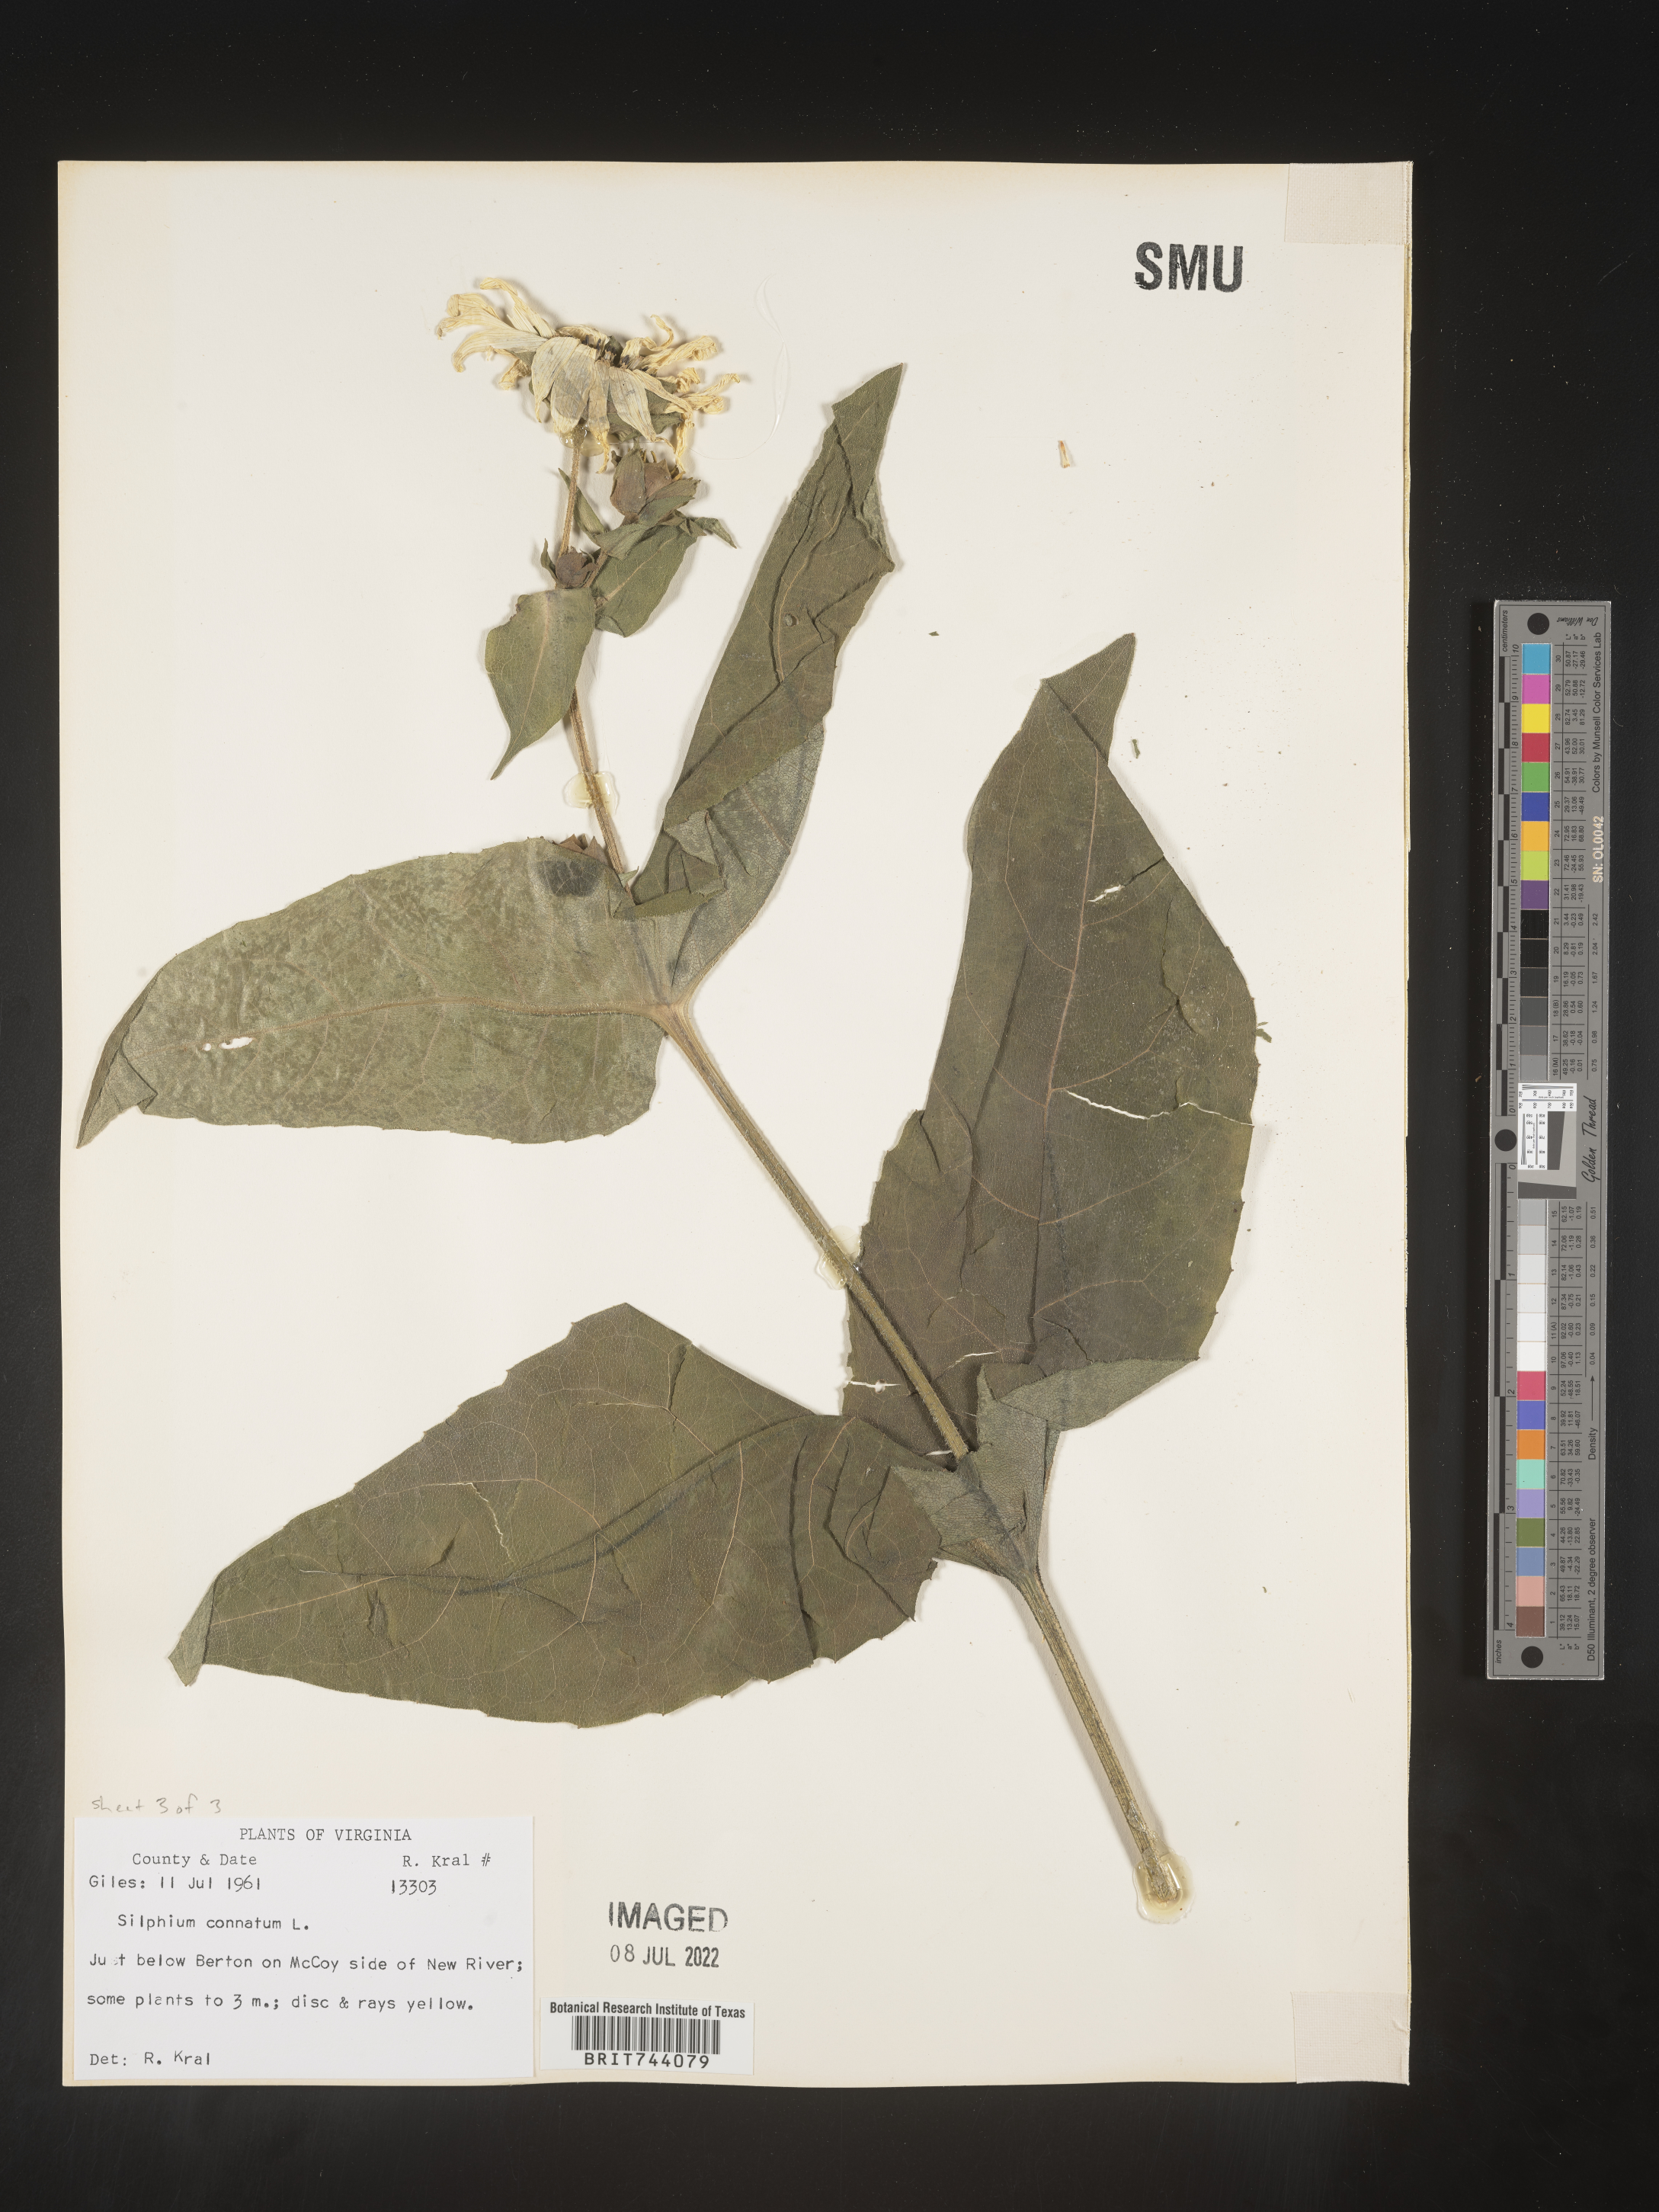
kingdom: Plantae
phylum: Tracheophyta
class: Magnoliopsida
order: Asterales
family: Asteraceae
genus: Silphium
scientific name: Silphium perfoliatum
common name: Cup-plant
